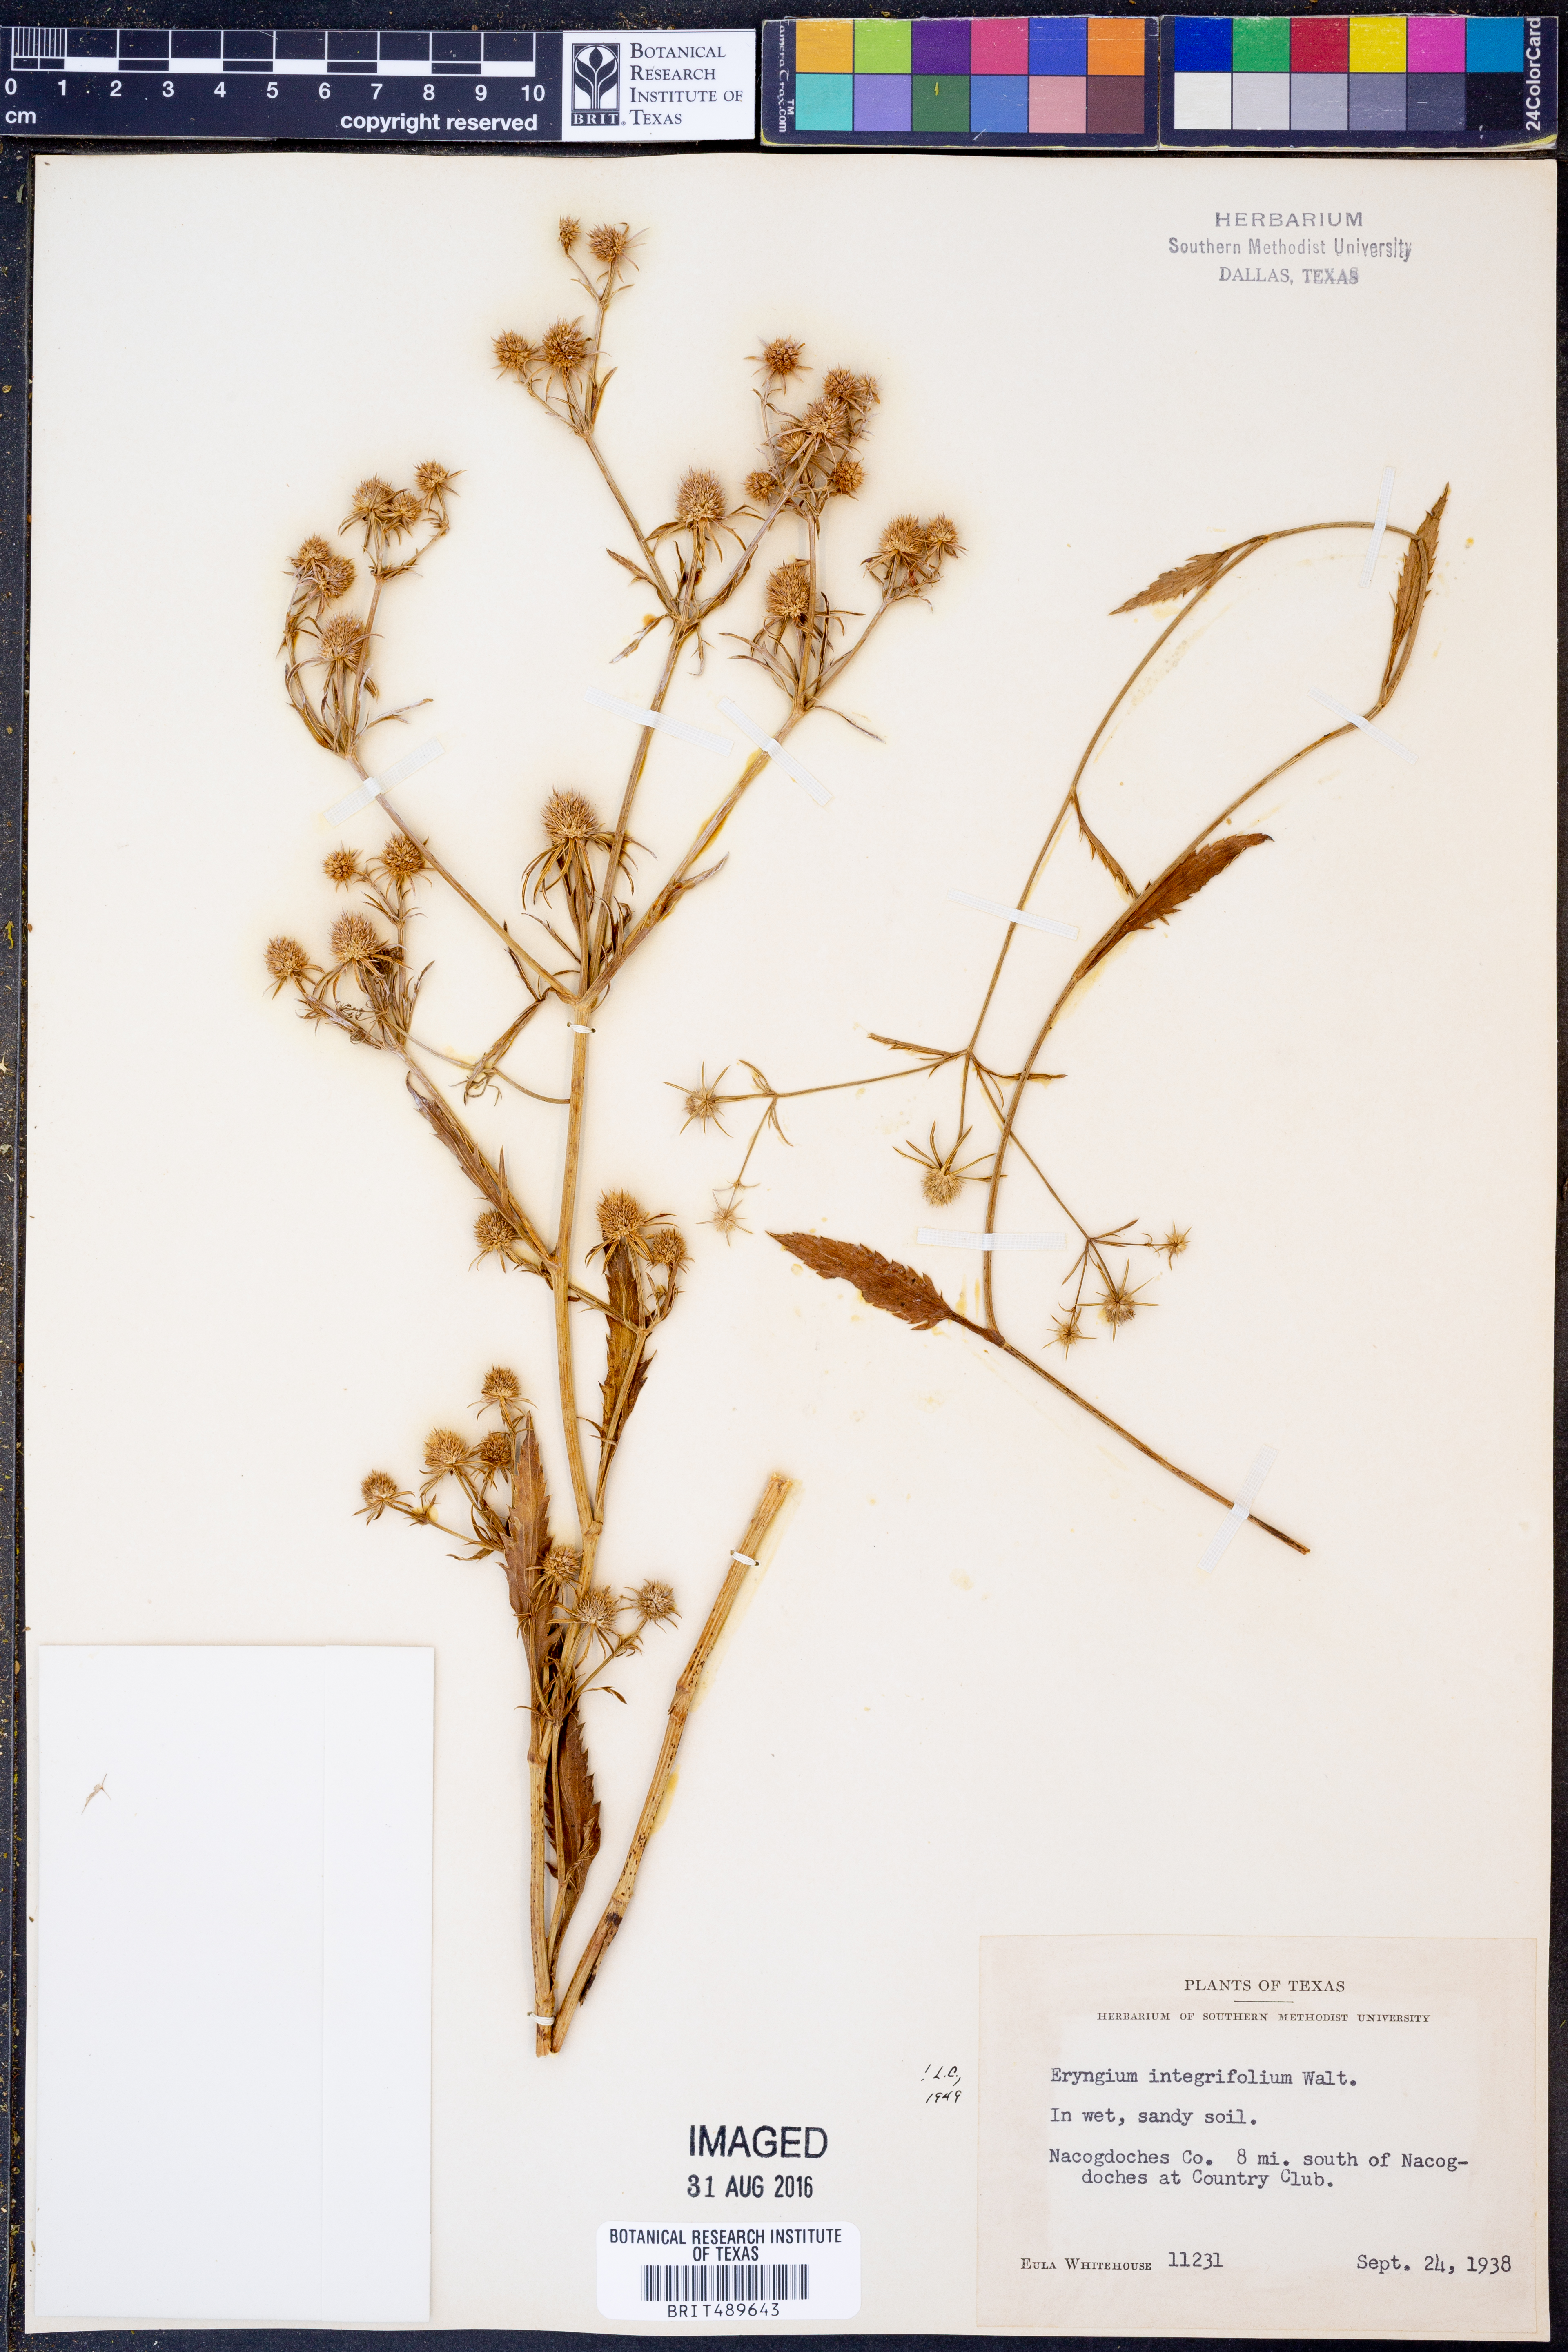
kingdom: Plantae
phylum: Tracheophyta
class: Magnoliopsida
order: Apiales
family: Apiaceae
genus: Eryngium
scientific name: Eryngium integrifolium
